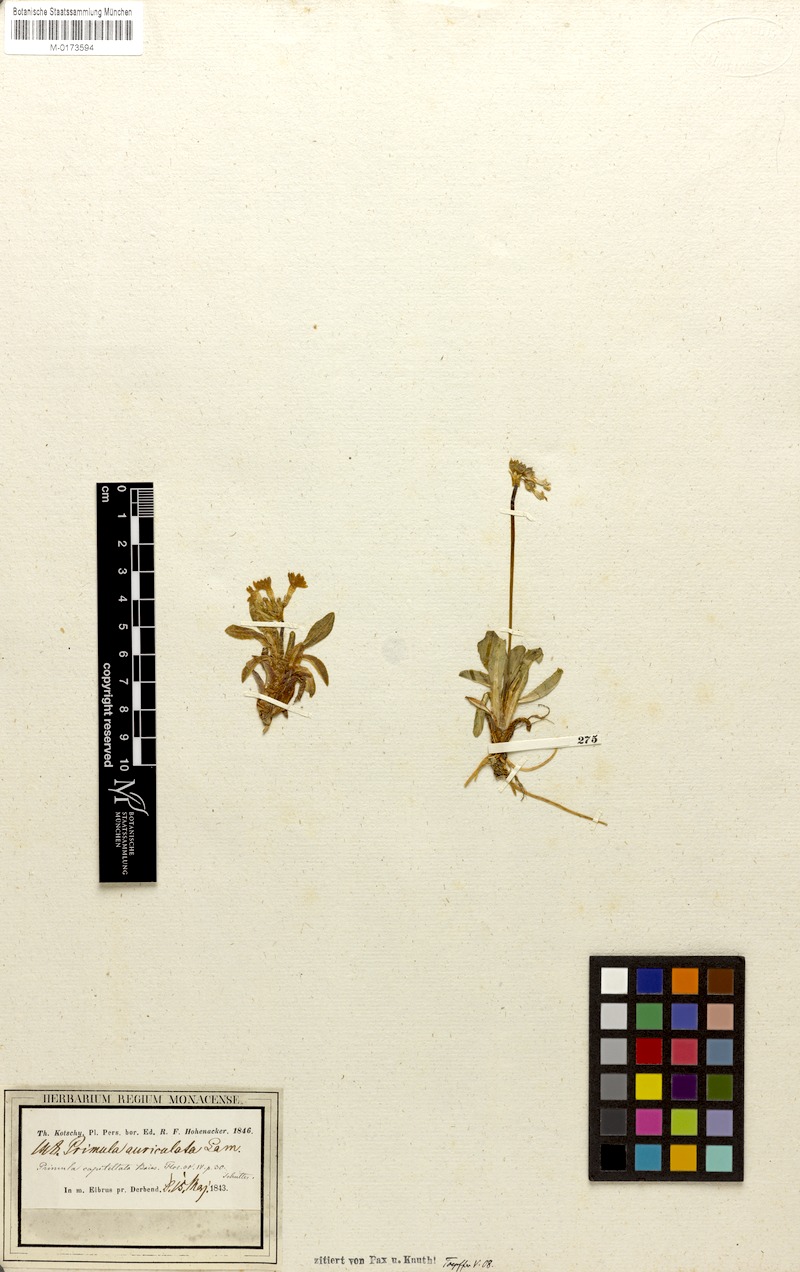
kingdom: Plantae
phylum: Tracheophyta
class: Magnoliopsida
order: Ericales
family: Primulaceae
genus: Primula
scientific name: Primula capitellata
